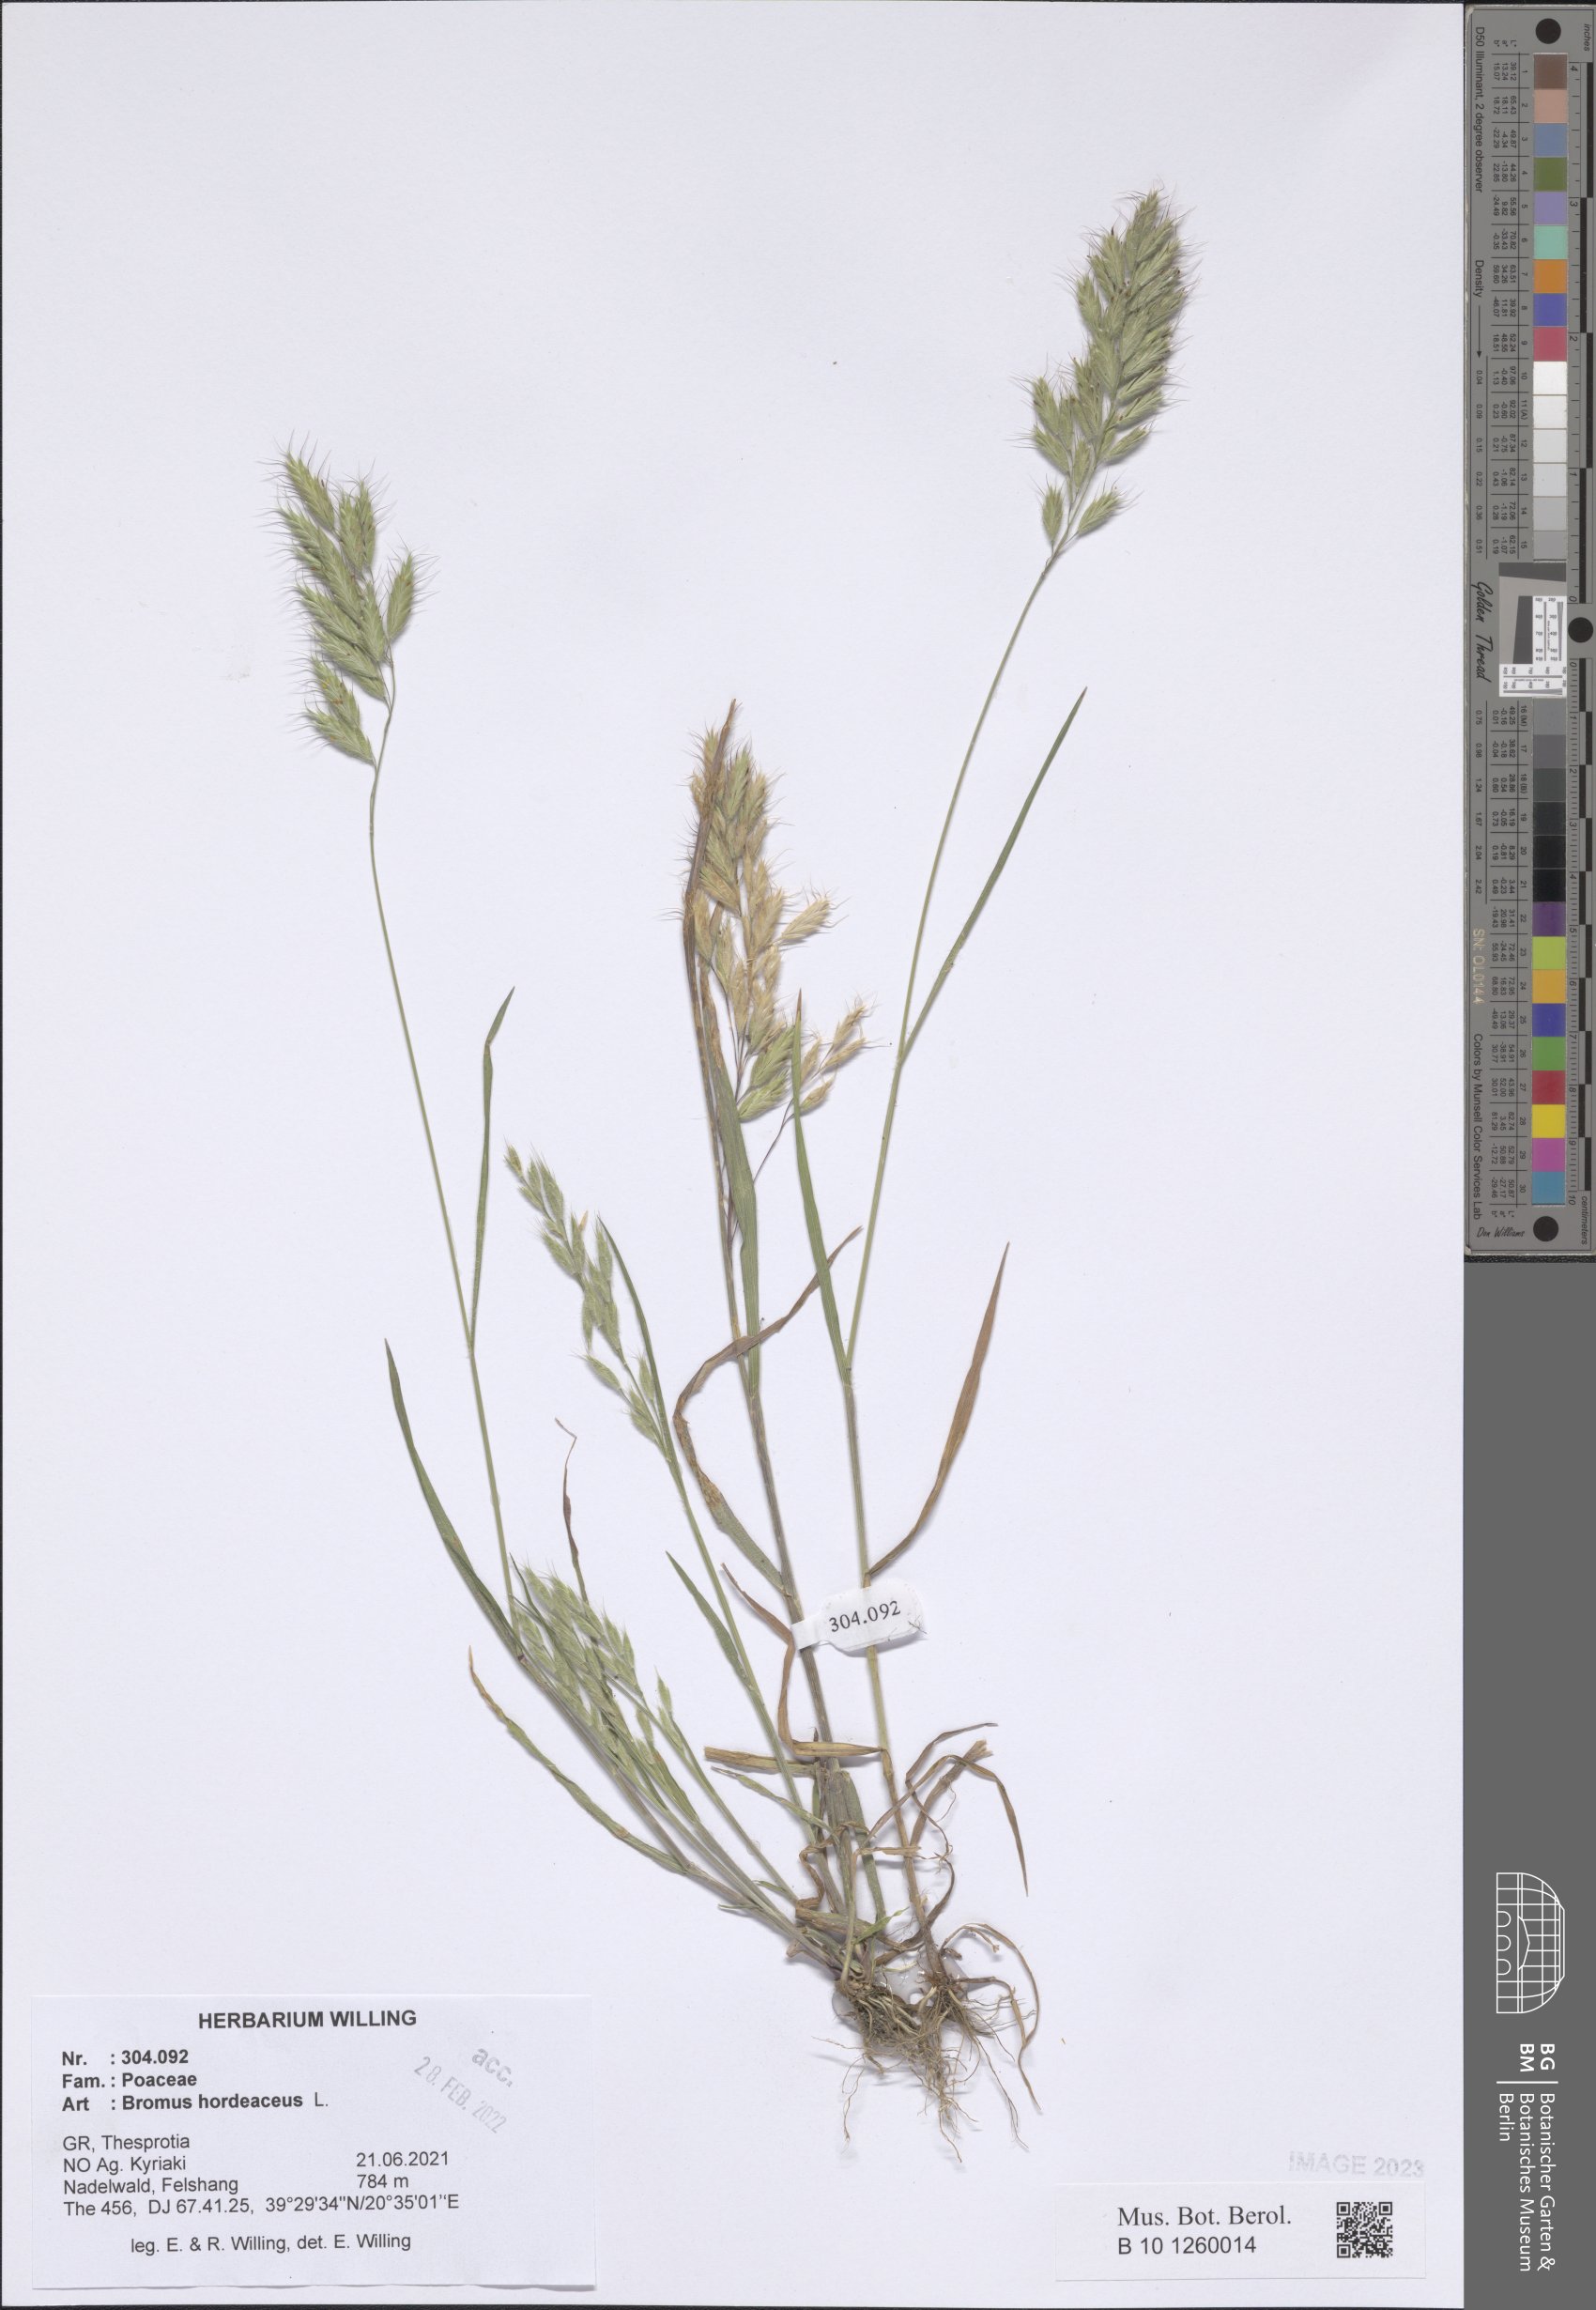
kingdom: Plantae
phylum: Tracheophyta
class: Liliopsida
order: Poales
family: Poaceae
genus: Bromus
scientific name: Bromus hordeaceus
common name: Soft brome
